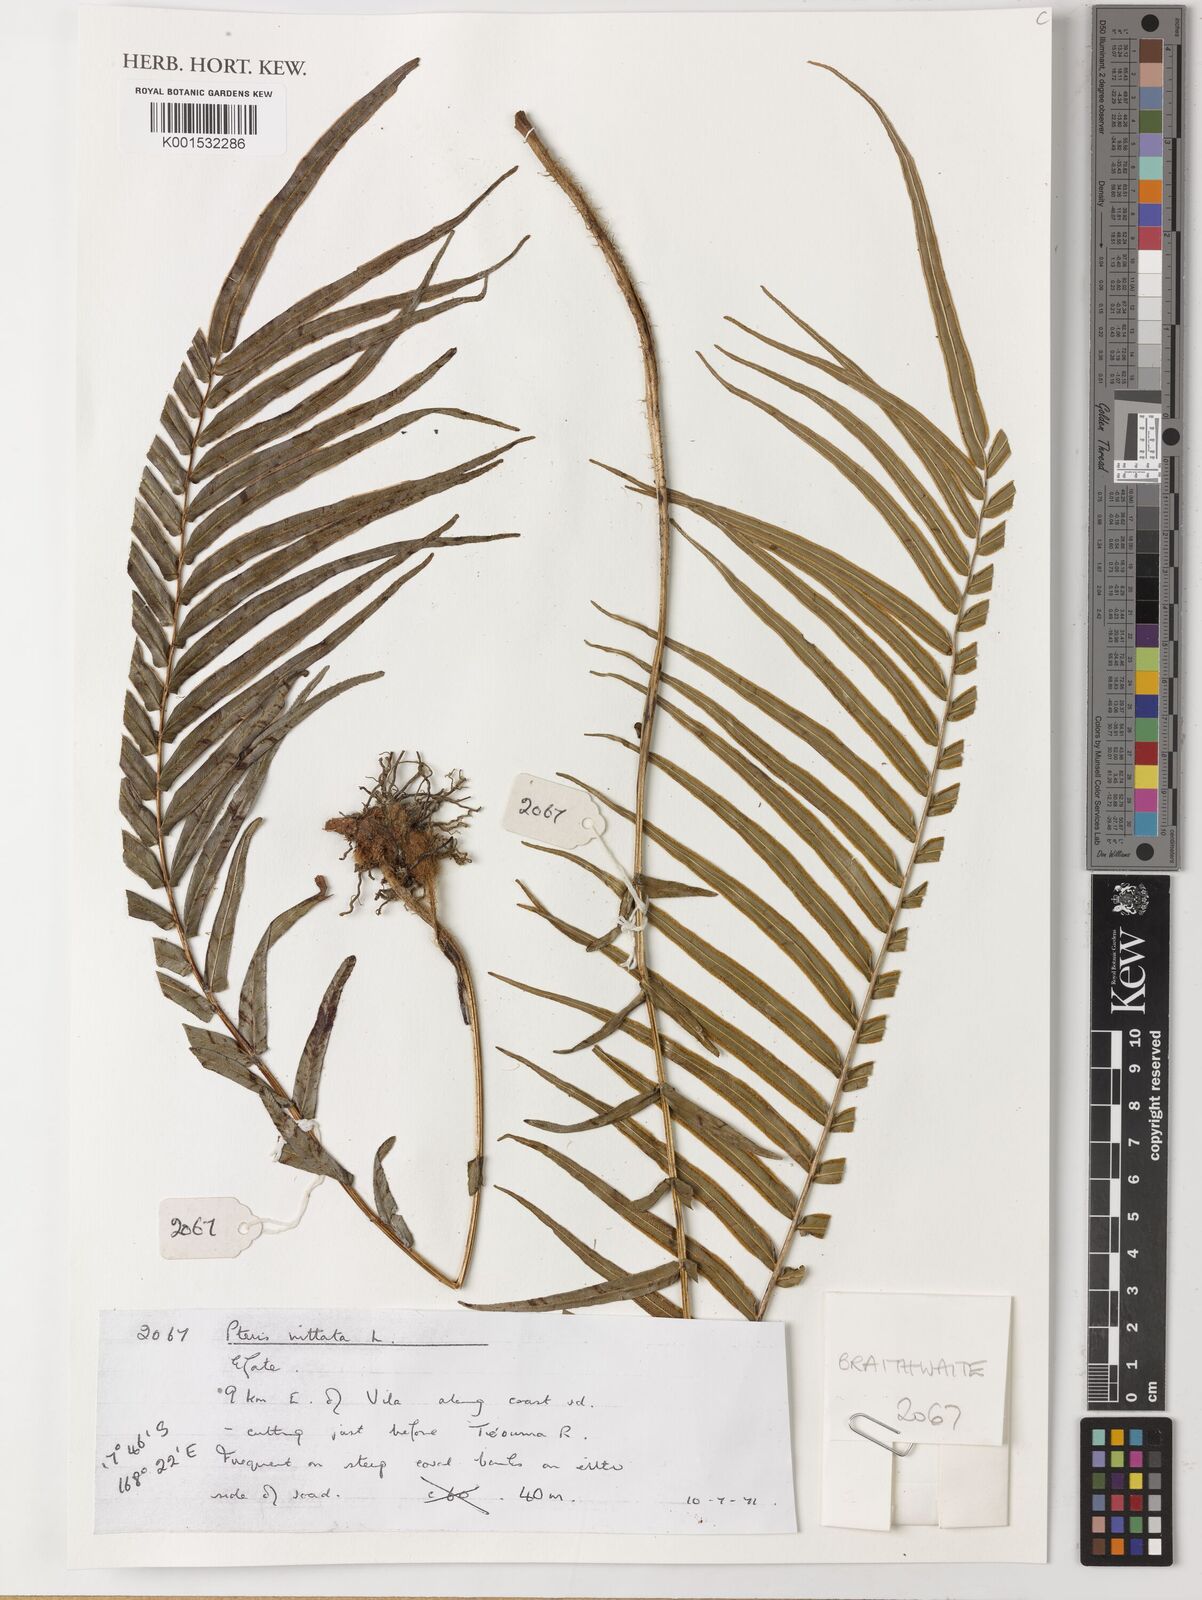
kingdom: Plantae
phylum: Tracheophyta
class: Polypodiopsida
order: Polypodiales
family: Pteridaceae
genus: Pteris
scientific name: Pteris vittata
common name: Ladder brake
